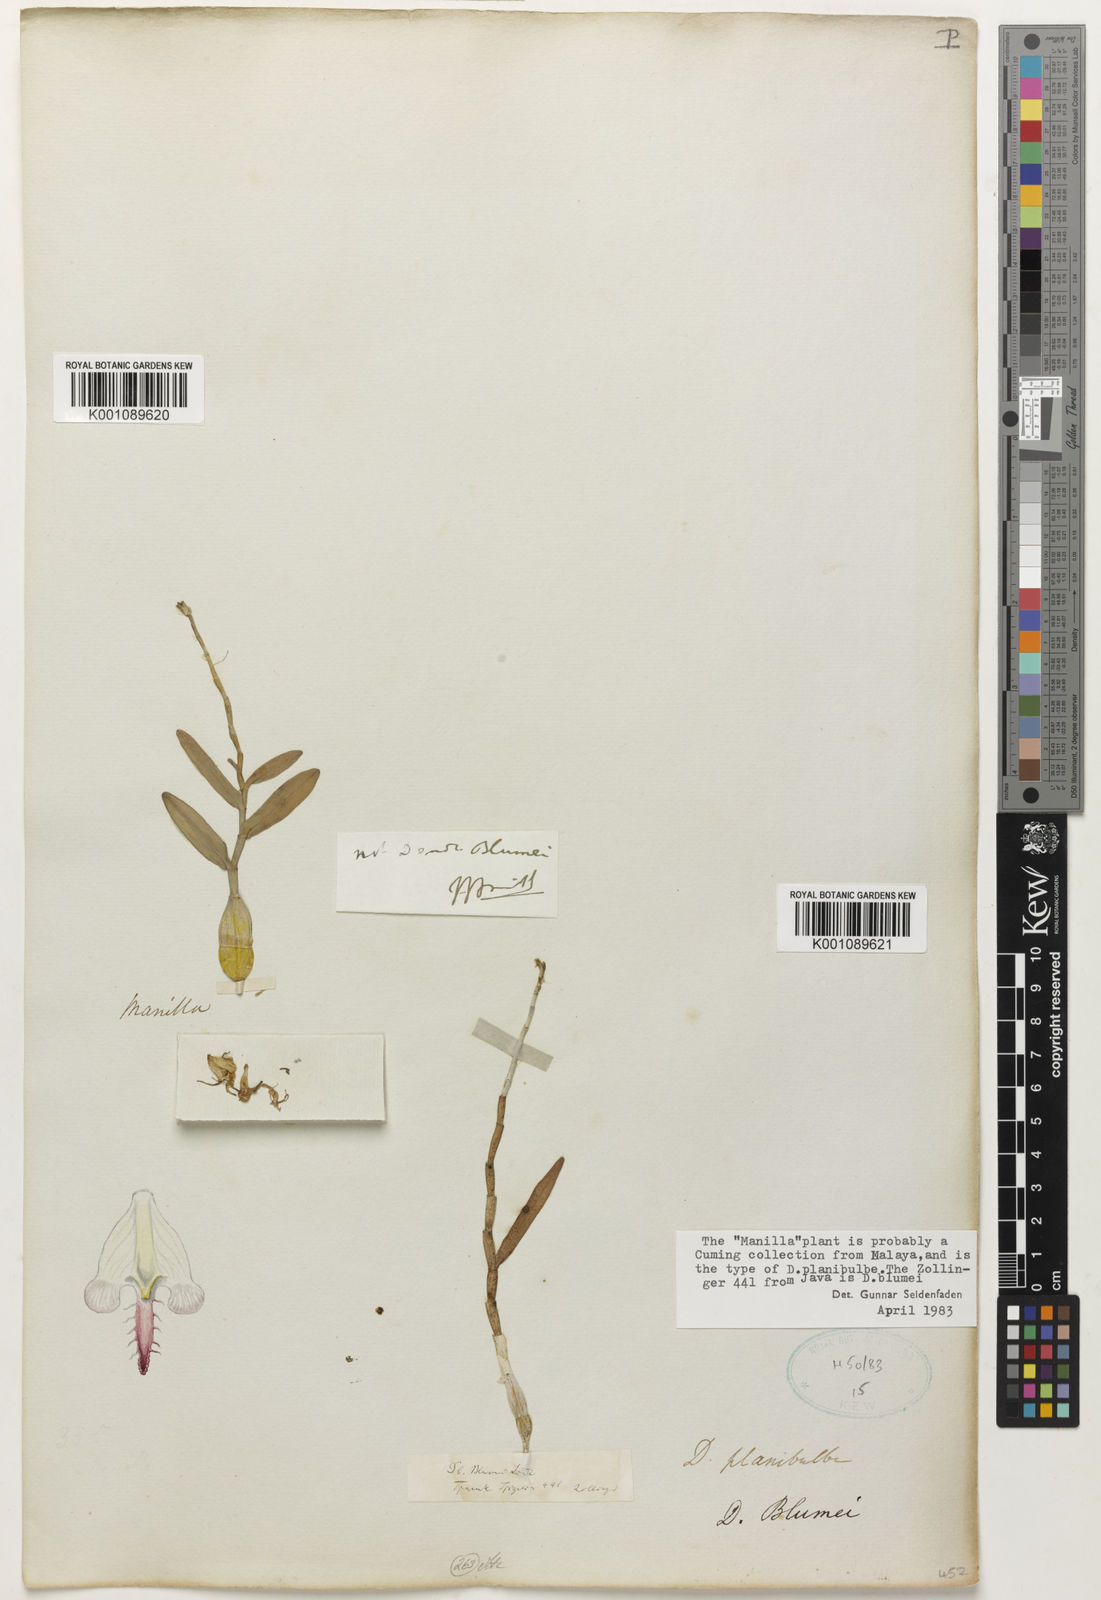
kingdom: Plantae
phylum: Tracheophyta
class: Liliopsida
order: Asparagales
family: Orchidaceae
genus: Dendrobium
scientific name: Dendrobium blumei
